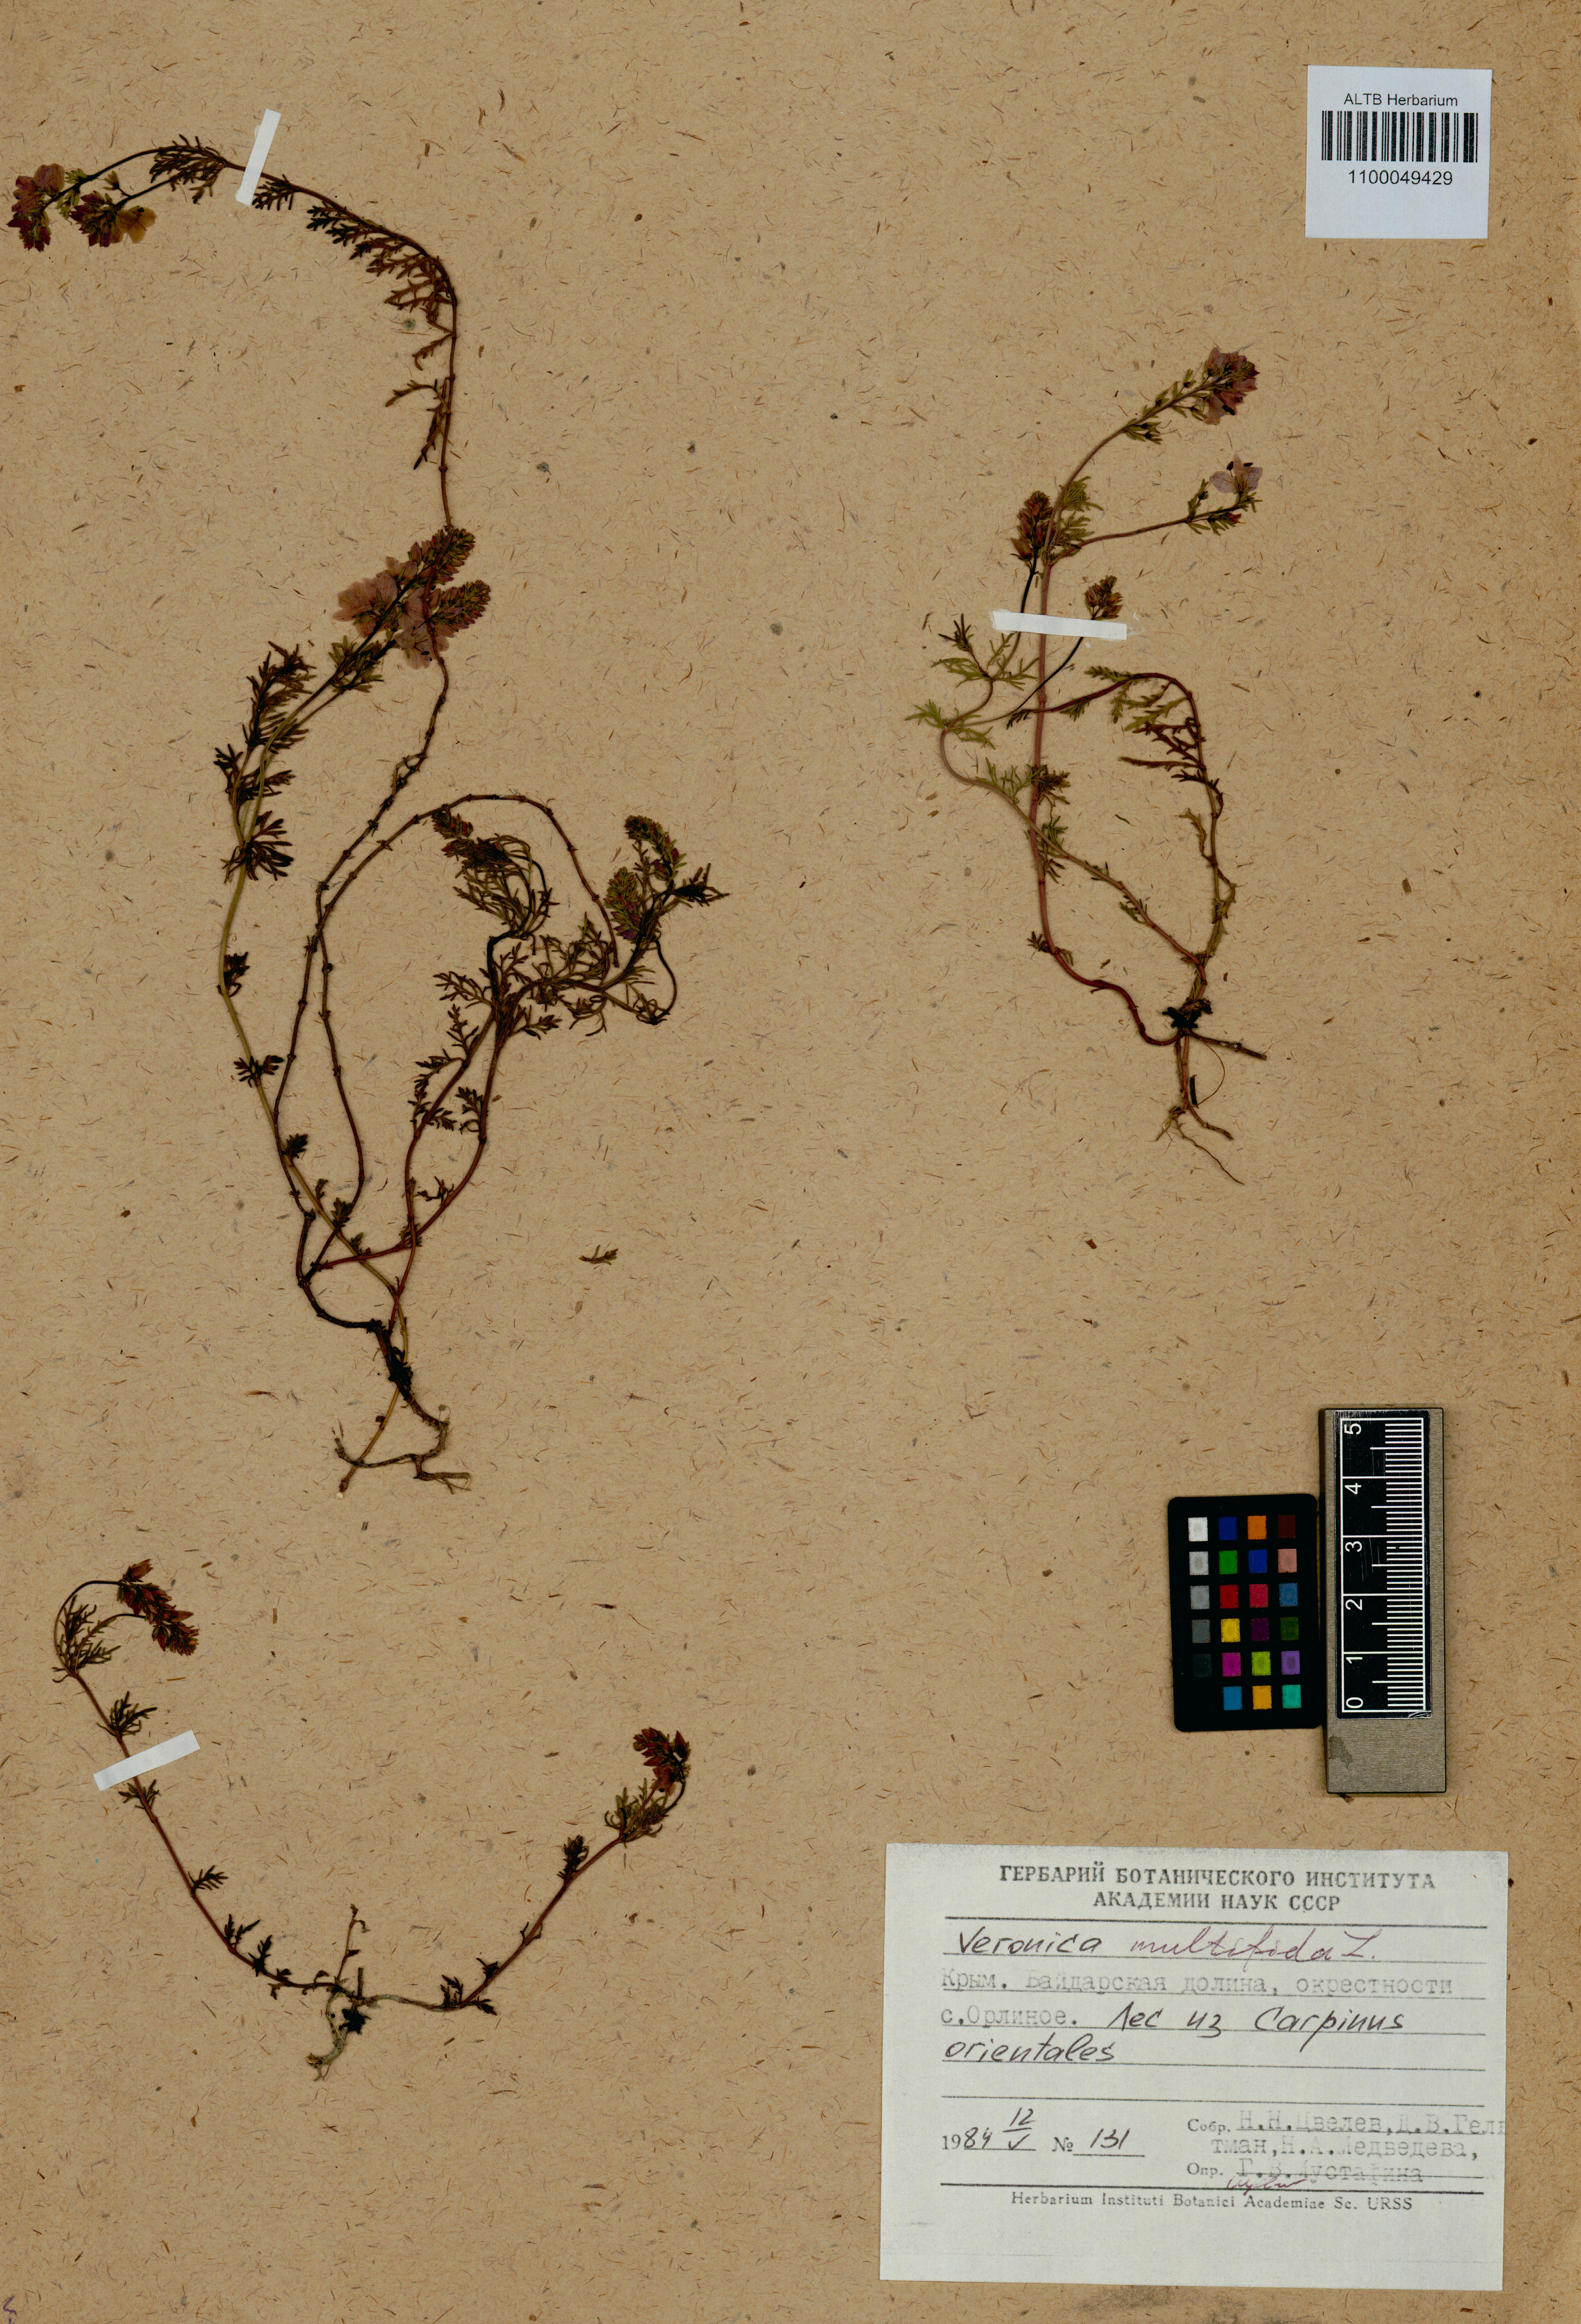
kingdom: Plantae
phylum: Tracheophyta
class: Magnoliopsida
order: Lamiales
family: Plantaginaceae
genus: Veronica
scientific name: Veronica multifida
